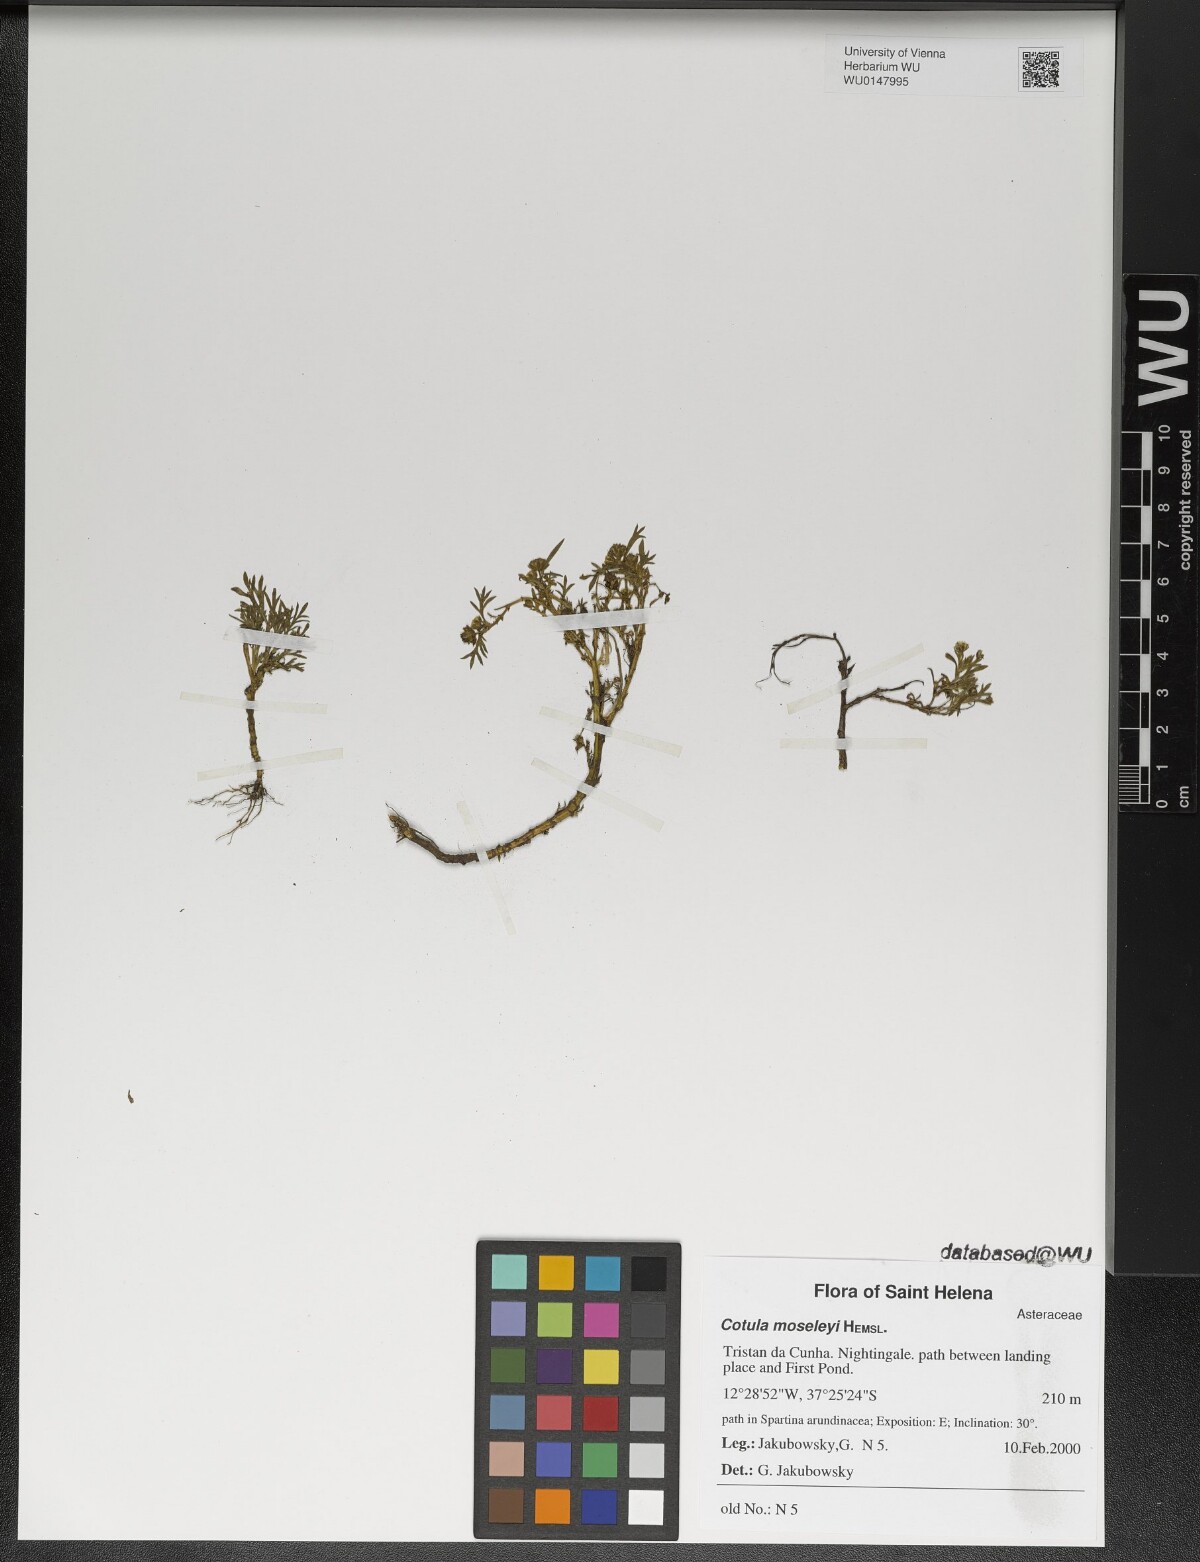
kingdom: Plantae
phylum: Tracheophyta
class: Magnoliopsida
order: Asterales
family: Asteraceae
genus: Cotula
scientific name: Cotula moseleyi
